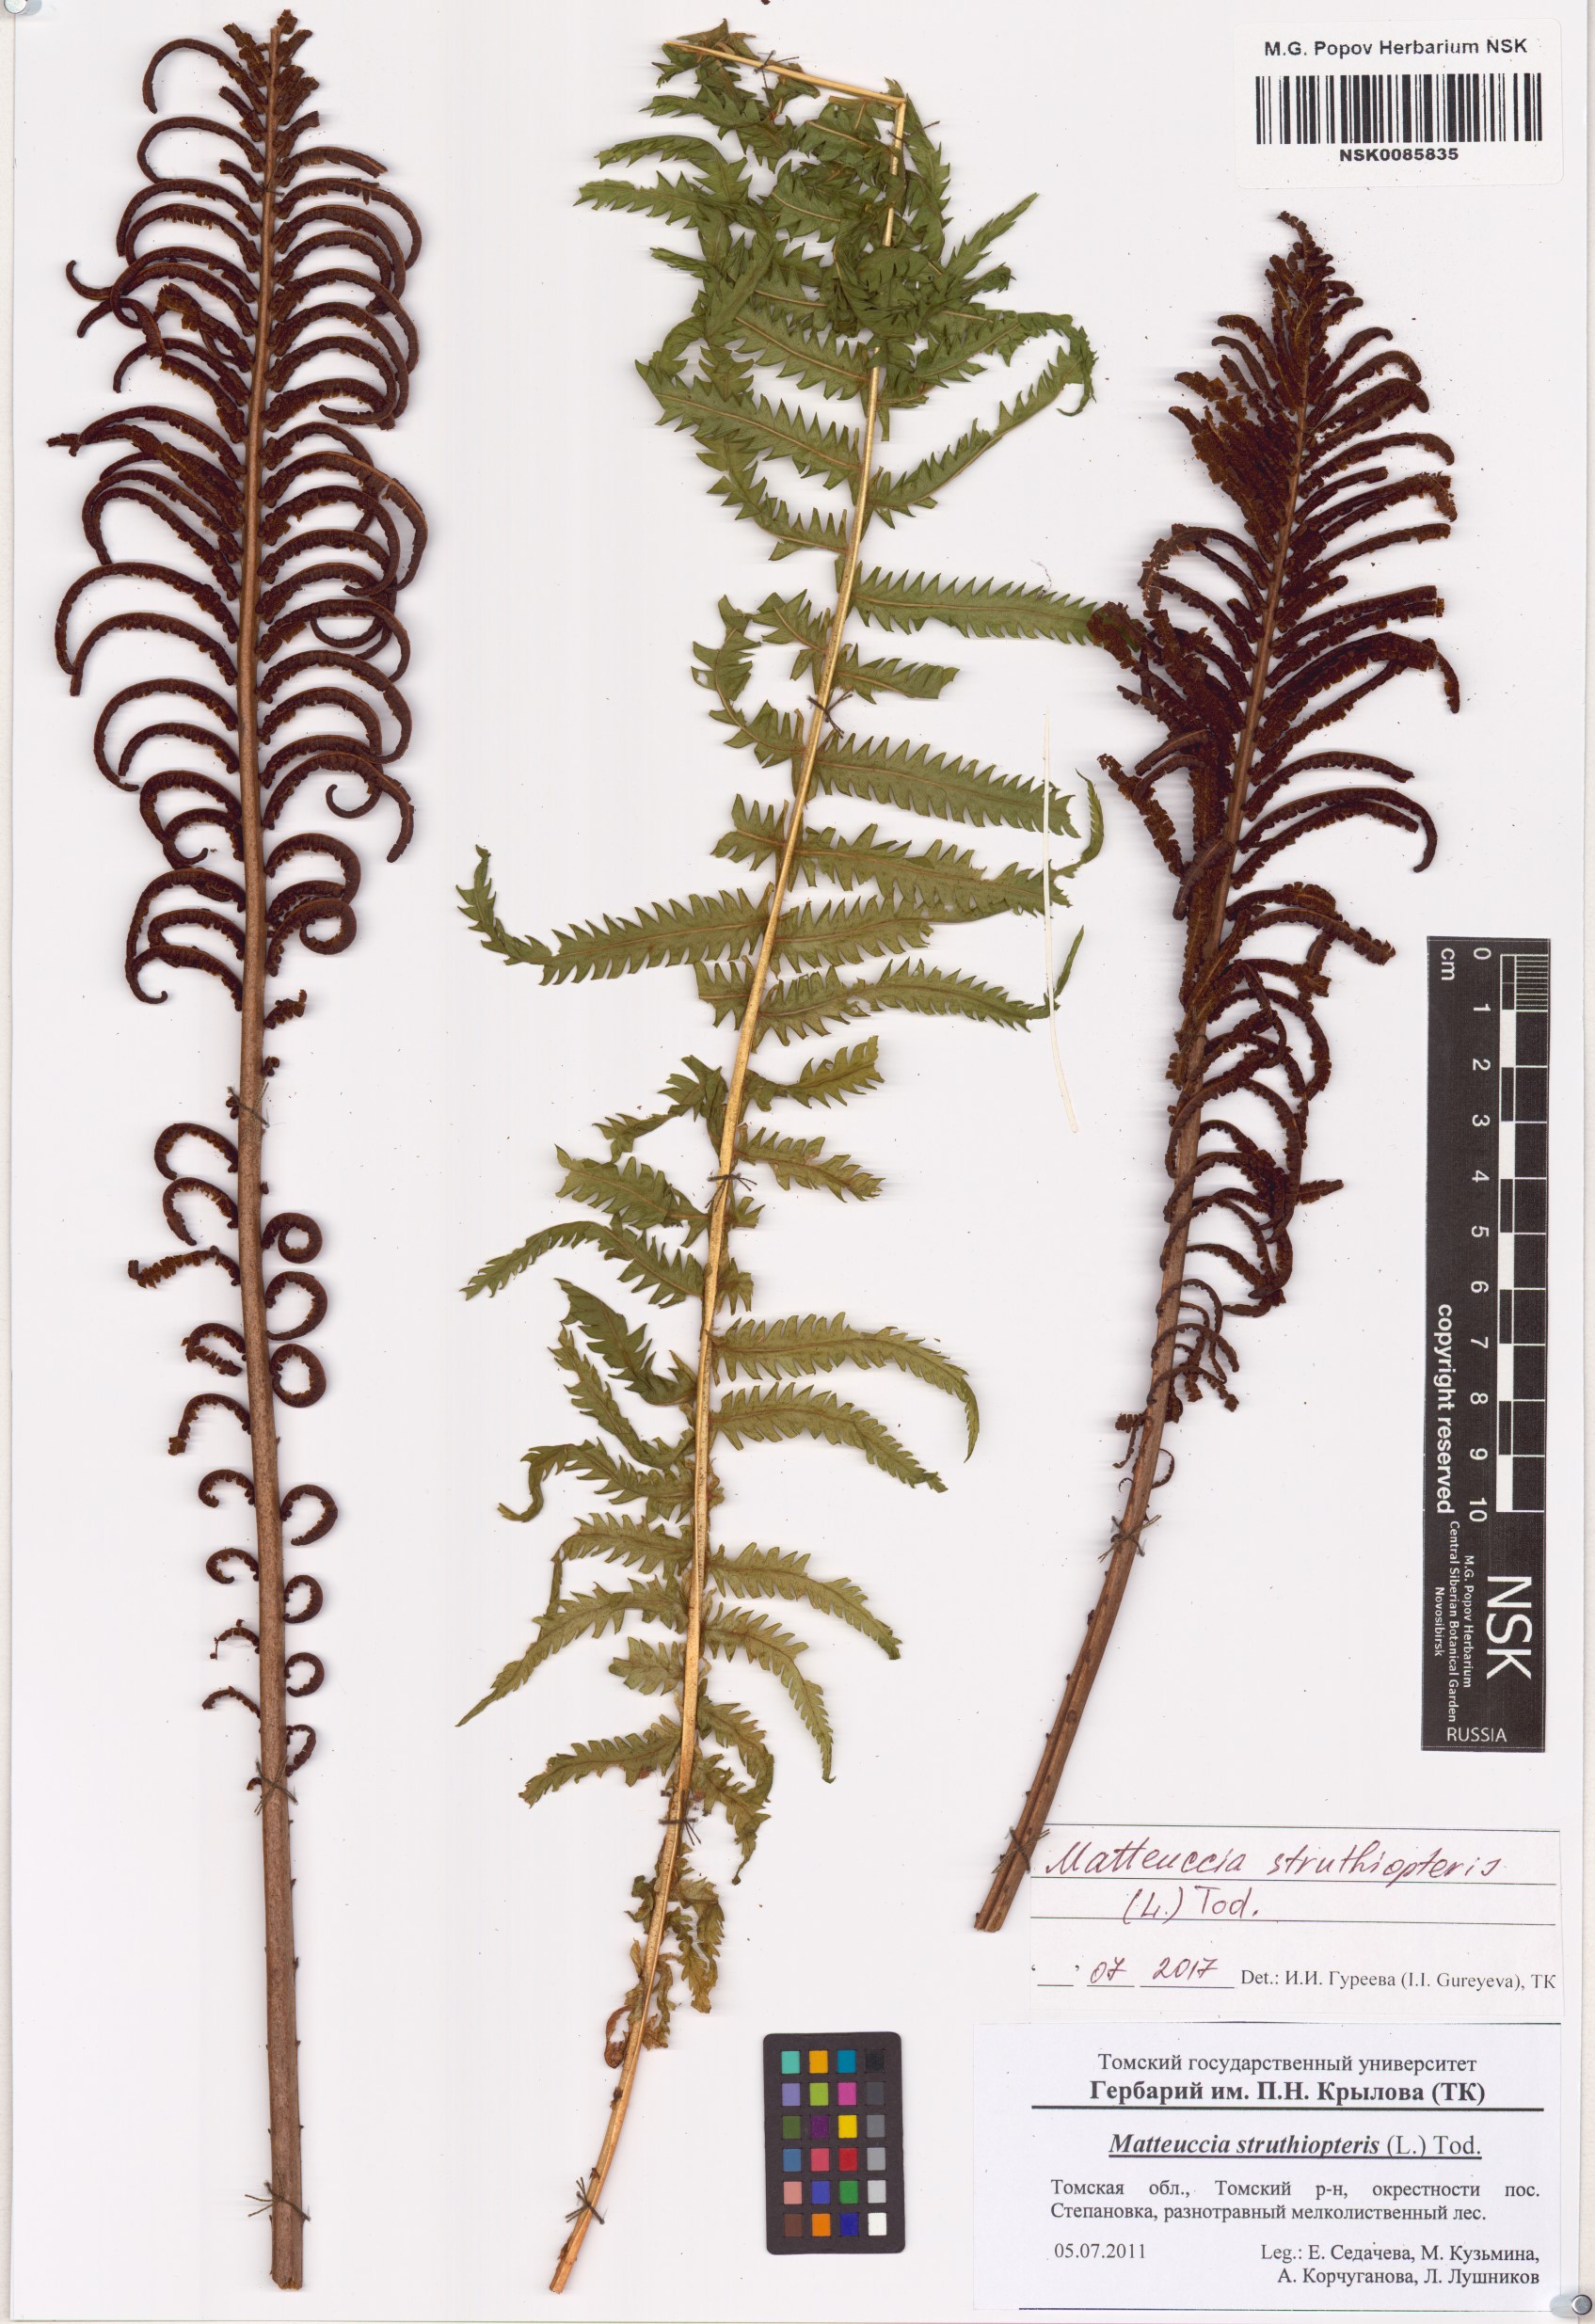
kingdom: Plantae
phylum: Tracheophyta
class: Polypodiopsida
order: Polypodiales
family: Onocleaceae
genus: Matteuccia
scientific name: Matteuccia struthiopteris
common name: Ostrich fern
